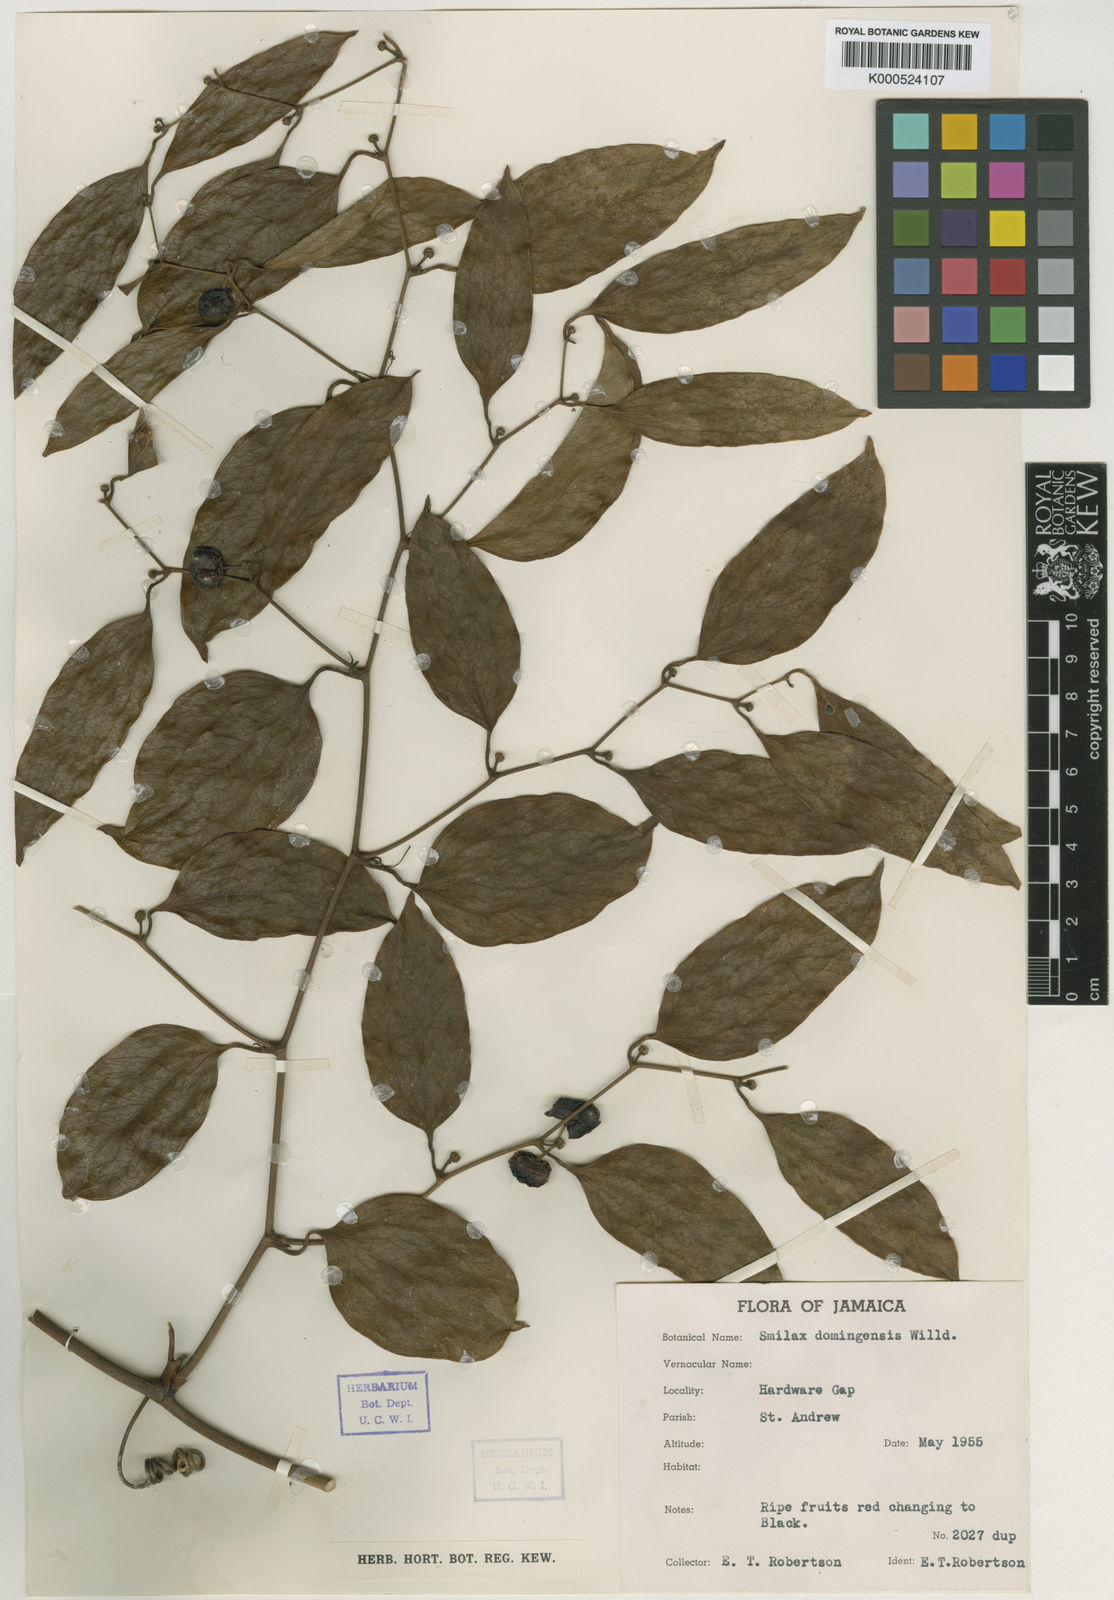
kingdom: Plantae
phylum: Tracheophyta
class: Liliopsida
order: Liliales
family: Smilacaceae
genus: Smilax
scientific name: Smilax domingensis
